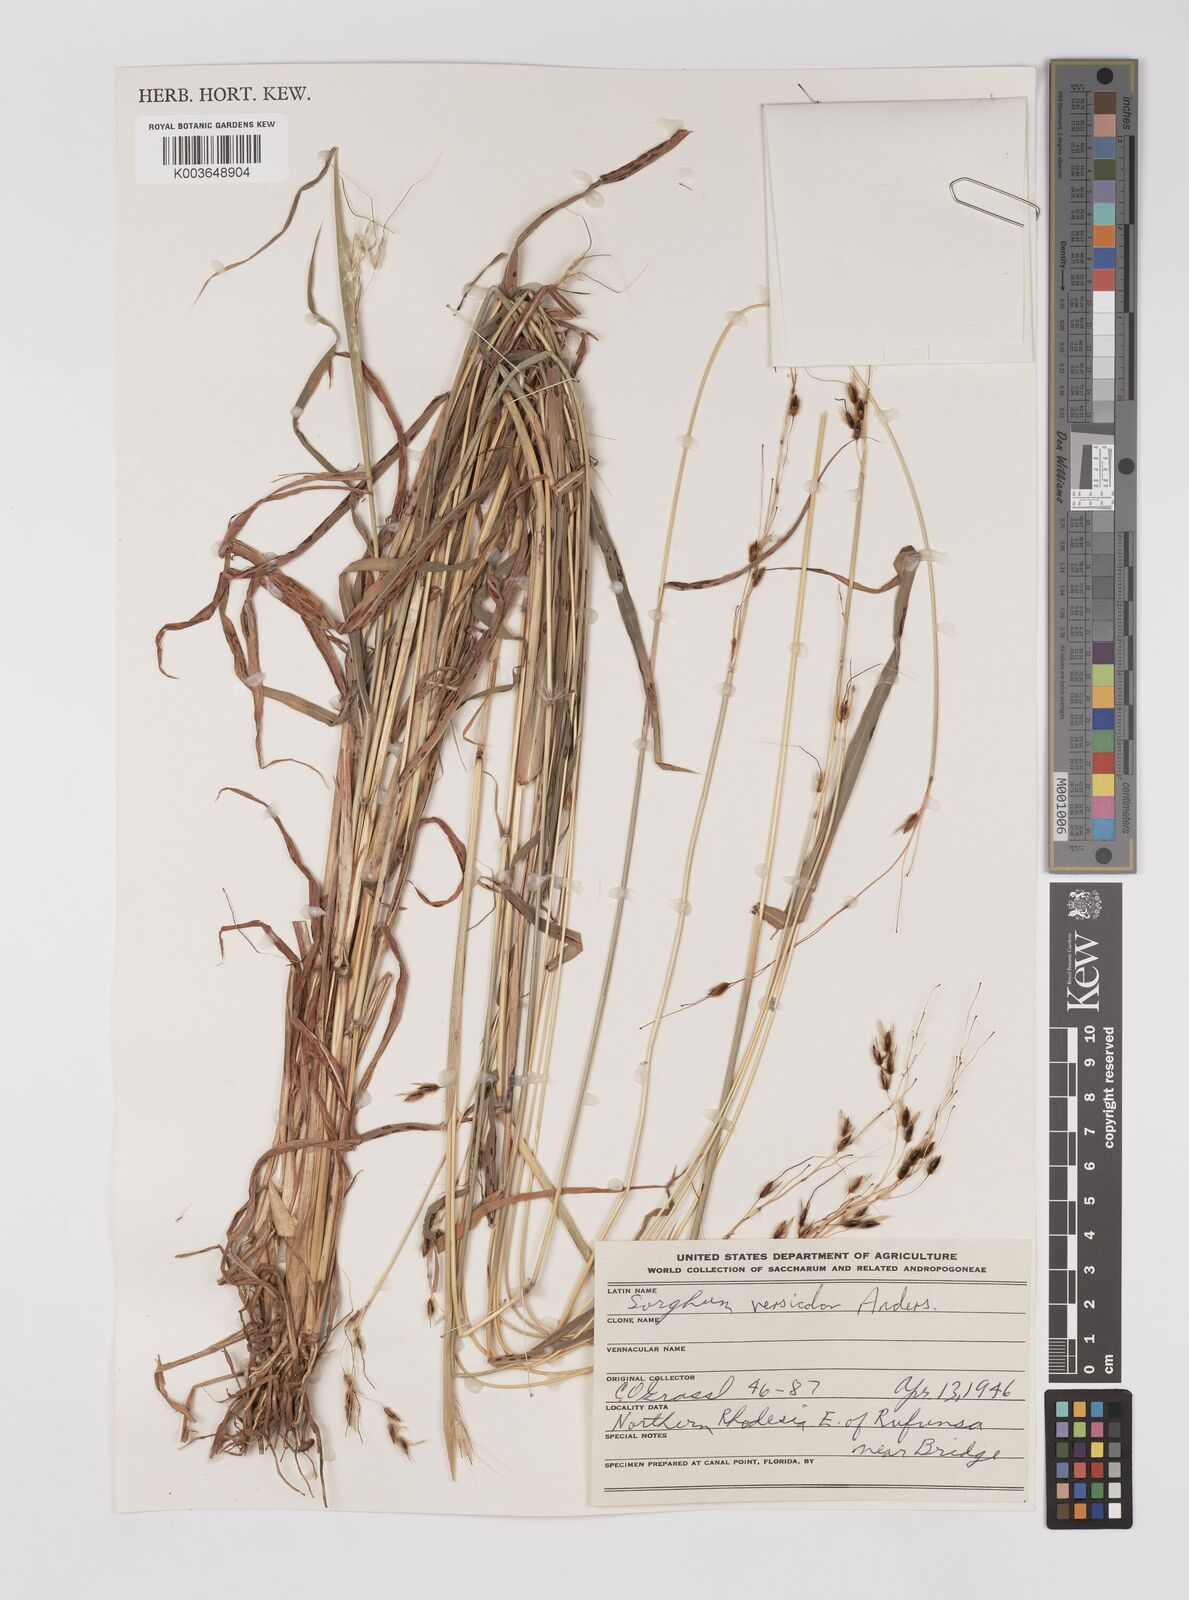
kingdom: Plantae
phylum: Tracheophyta
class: Liliopsida
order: Poales
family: Poaceae
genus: Sarga
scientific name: Sarga versicolor
